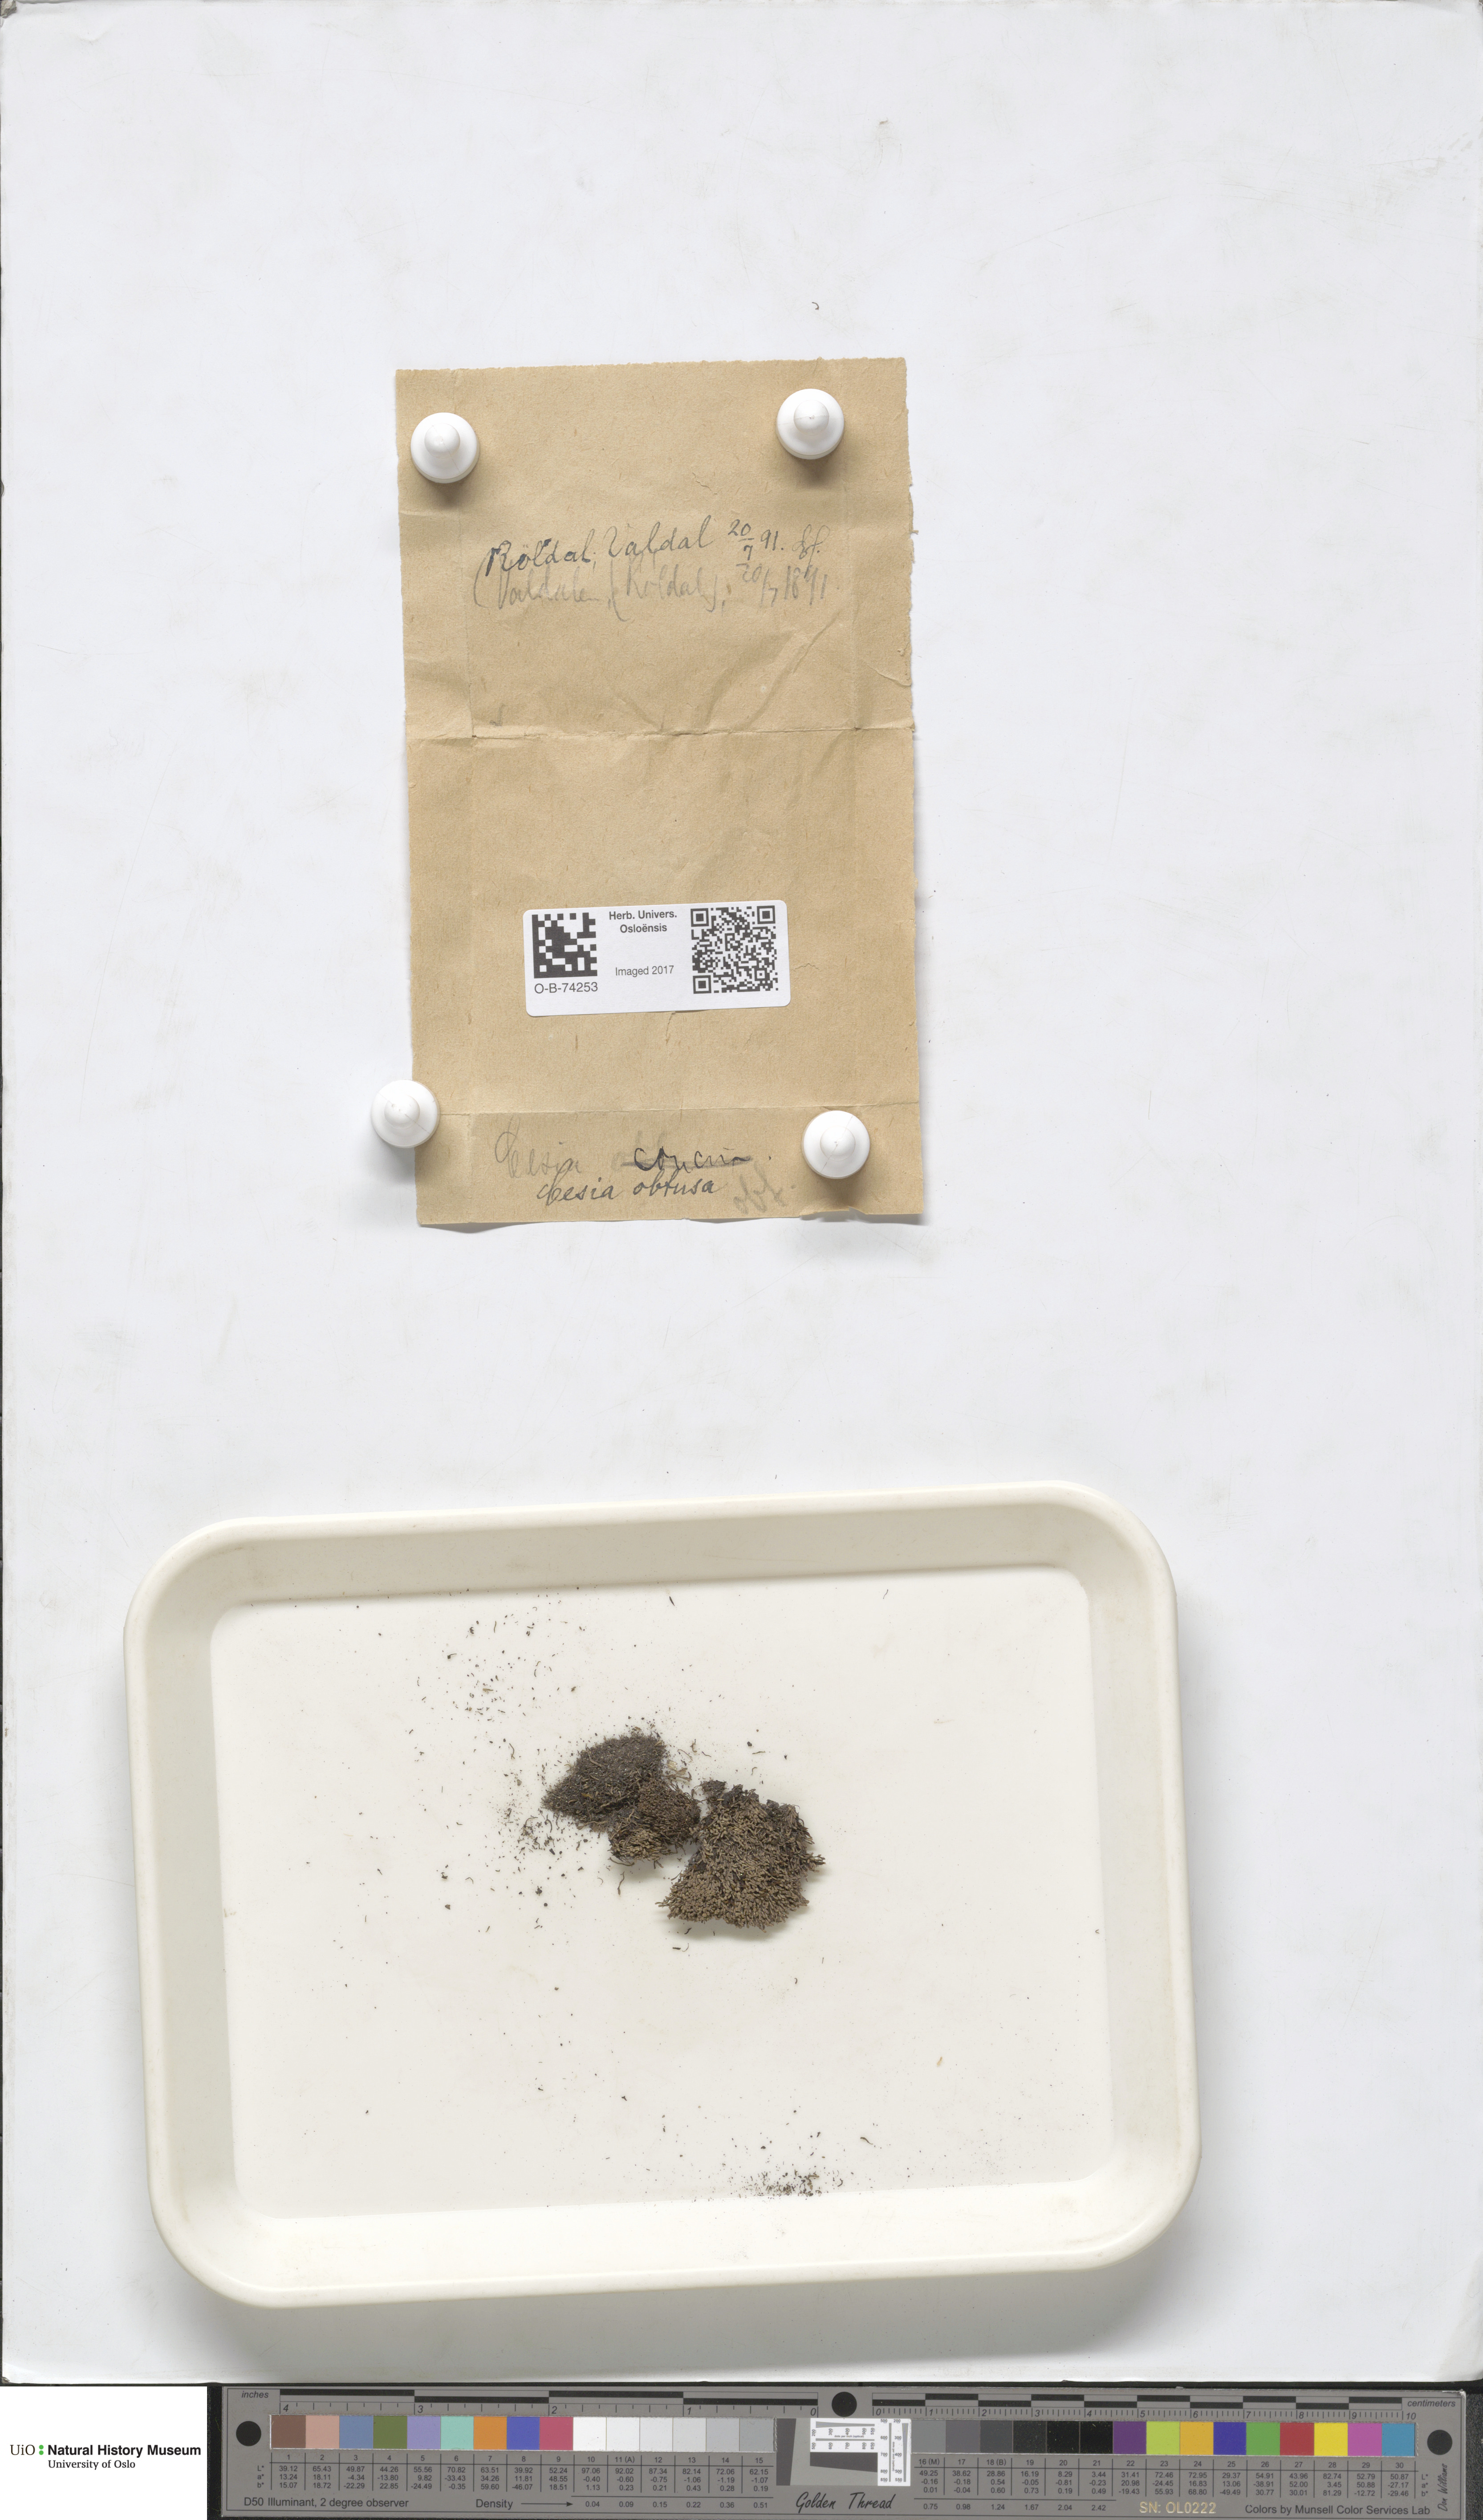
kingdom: Plantae
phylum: Marchantiophyta
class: Jungermanniopsida
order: Jungermanniales
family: Gymnomitriaceae
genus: Gymnomitrion
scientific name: Gymnomitrion obtusum
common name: White frostwort
